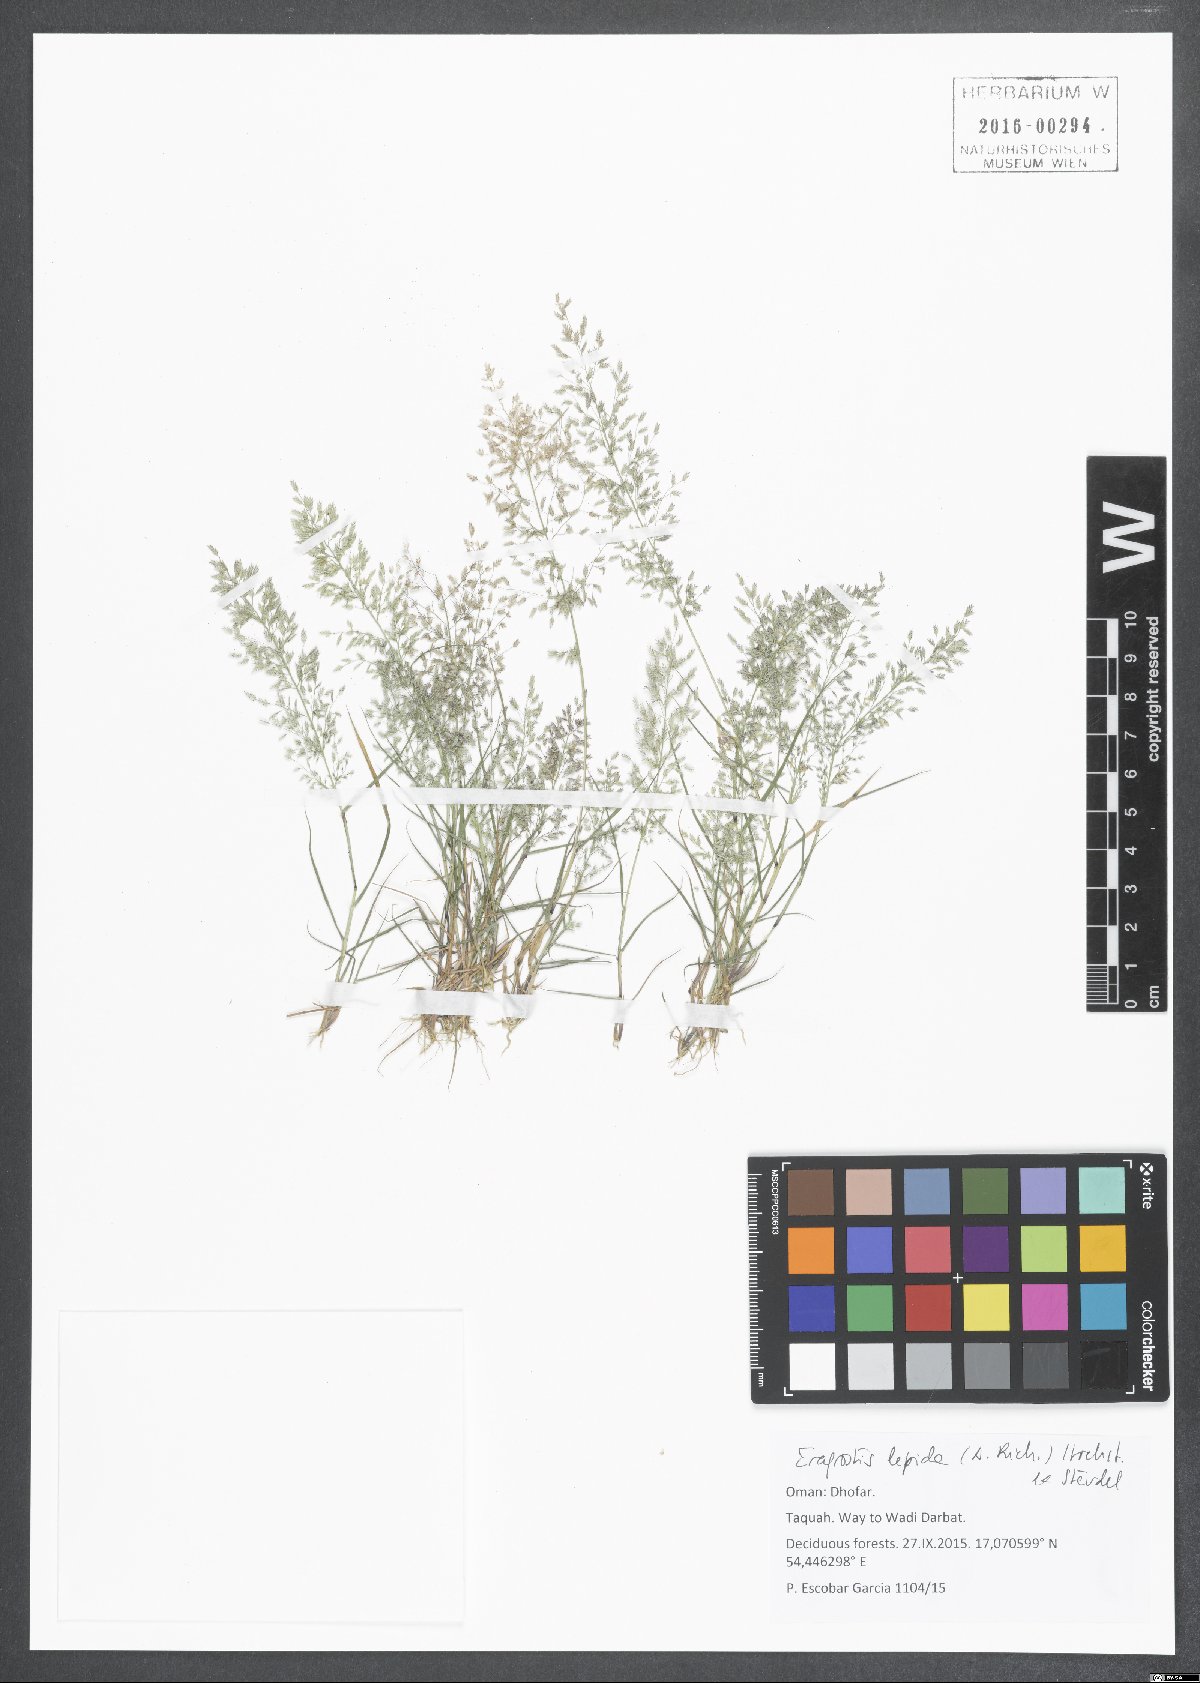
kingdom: Plantae
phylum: Tracheophyta
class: Liliopsida
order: Poales
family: Poaceae
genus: Eragrostis
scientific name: Eragrostis lepida
